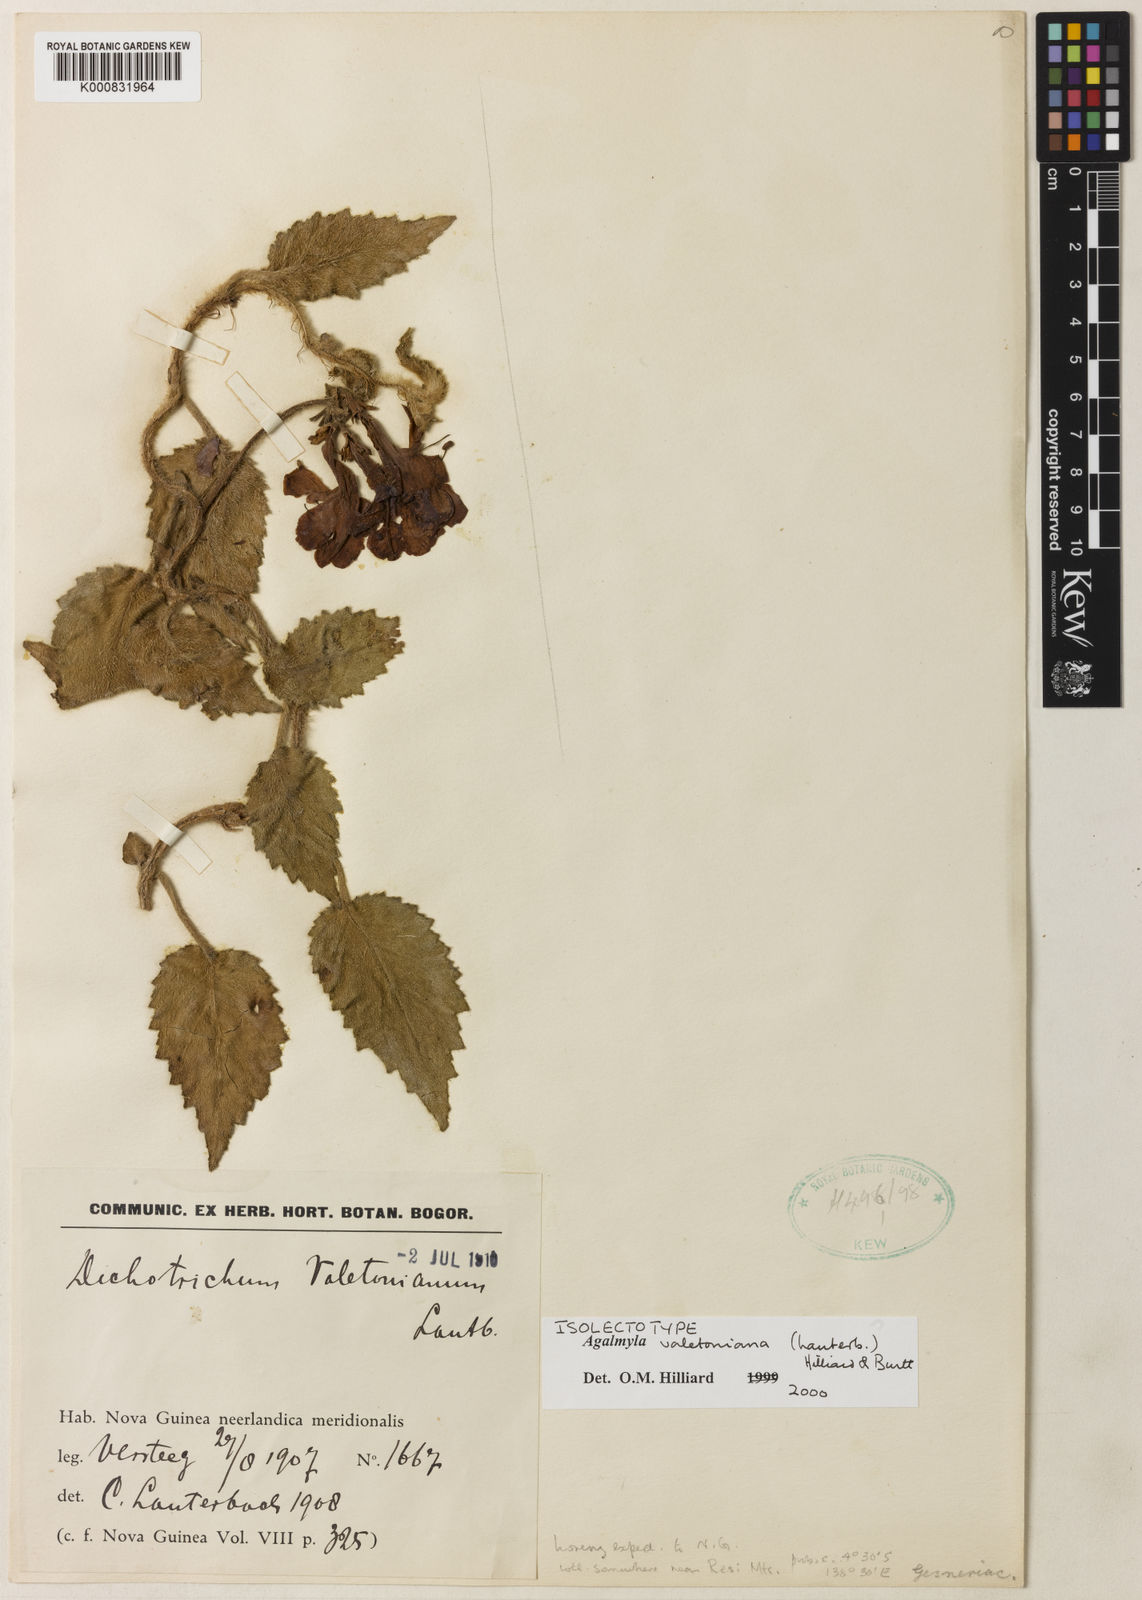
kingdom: Plantae
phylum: Tracheophyta
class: Magnoliopsida
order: Lamiales
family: Gesneriaceae
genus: Agalmyla
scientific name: Agalmyla valetoniana
